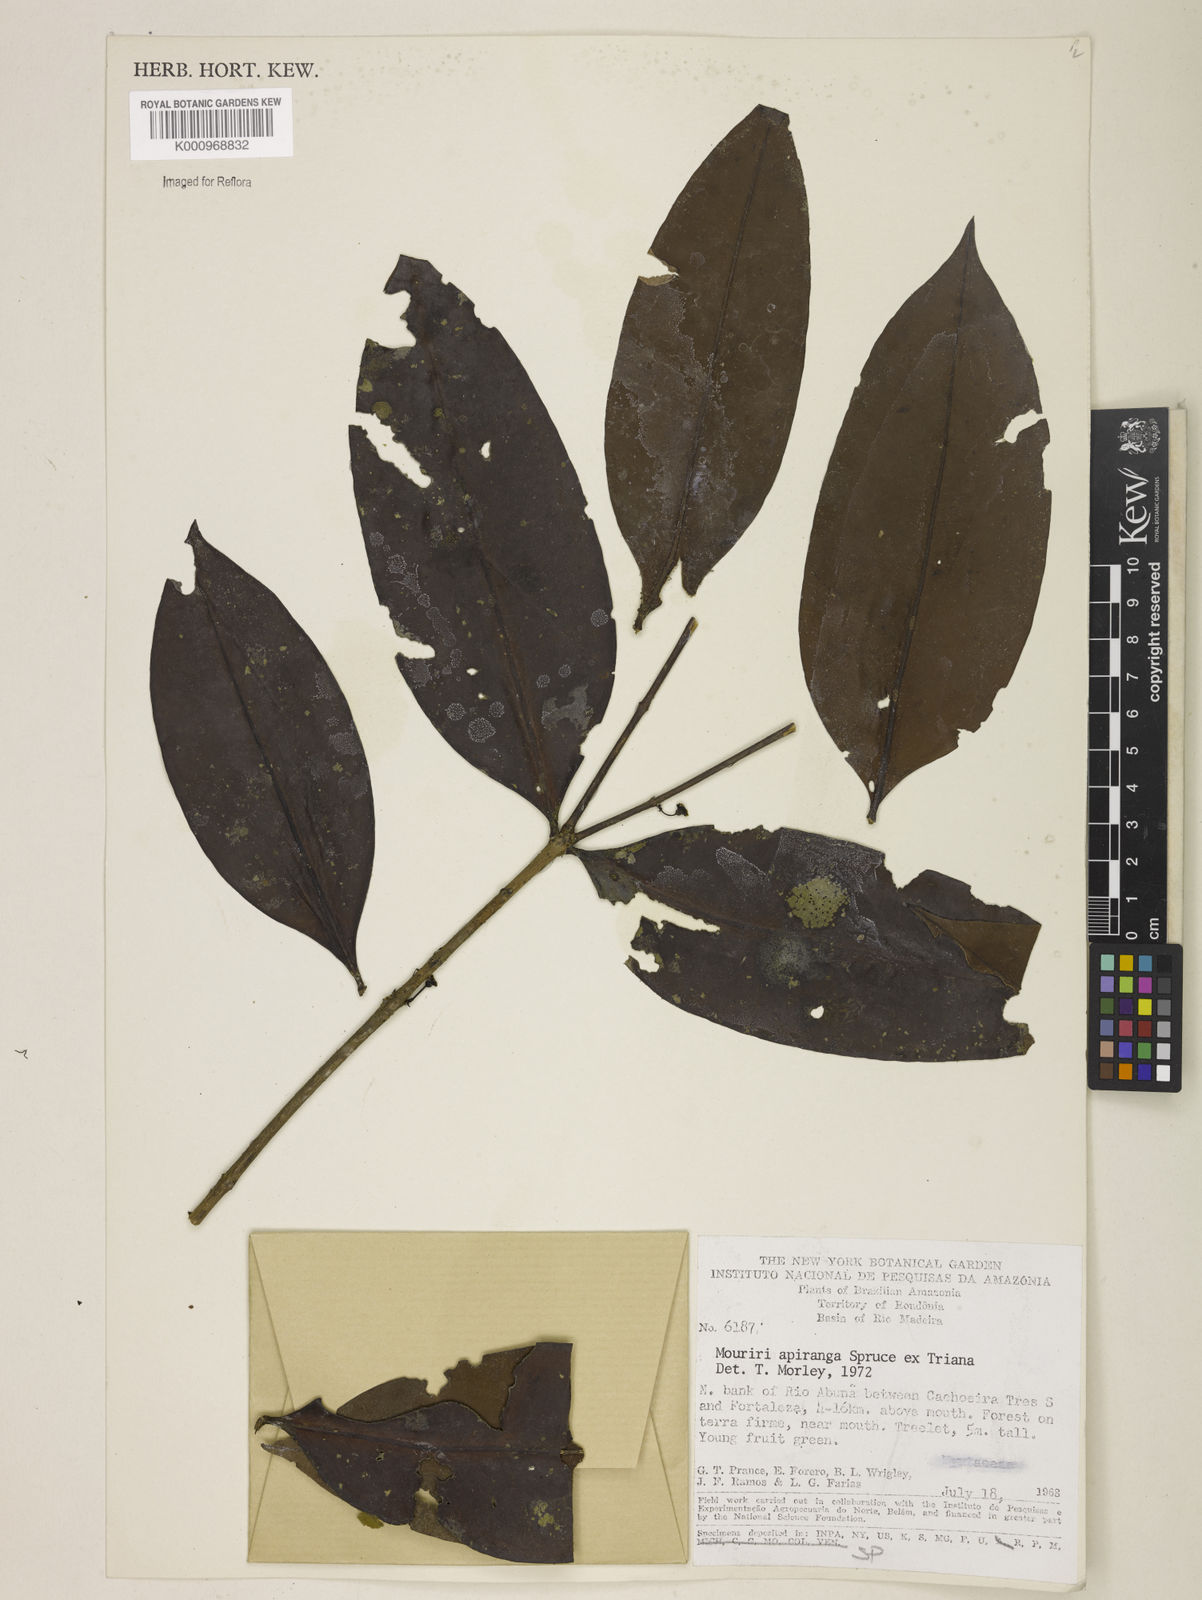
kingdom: Plantae
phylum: Tracheophyta
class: Magnoliopsida
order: Myrtales
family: Melastomataceae
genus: Mouriri
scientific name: Mouriri apiranga
